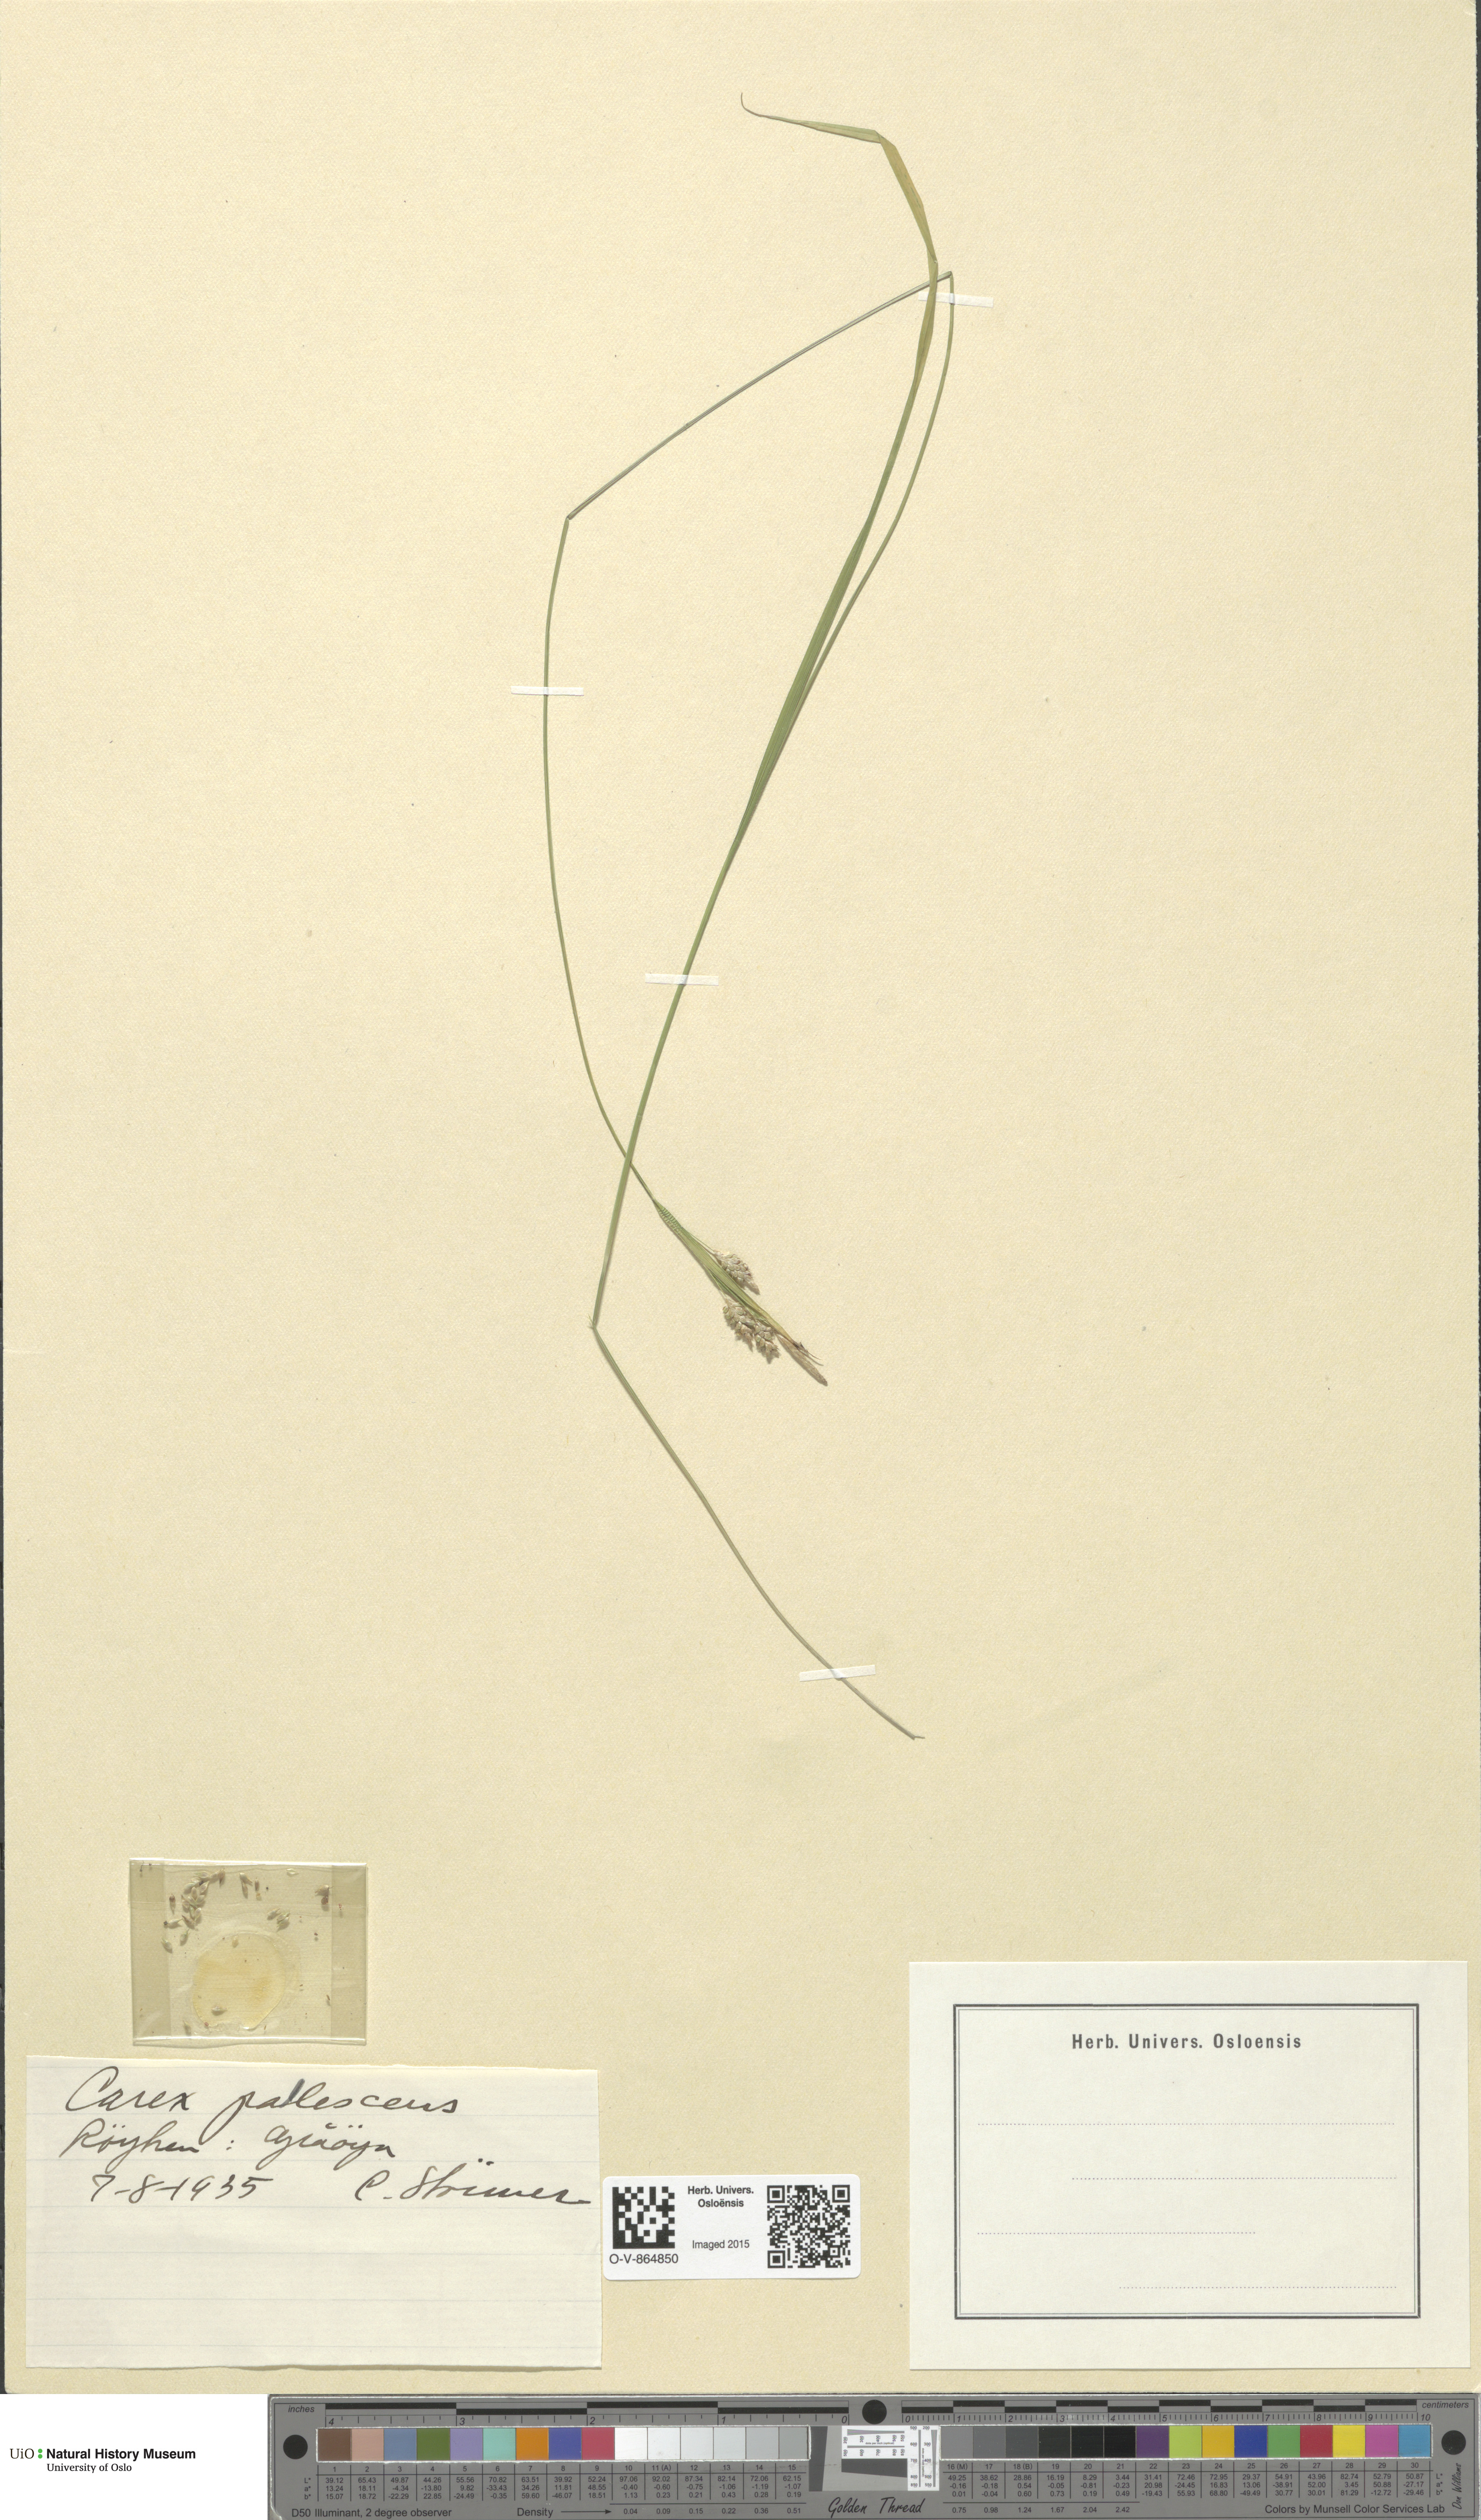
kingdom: Plantae
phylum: Tracheophyta
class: Liliopsida
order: Poales
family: Cyperaceae
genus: Carex
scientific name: Carex pallescens
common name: Pale sedge
